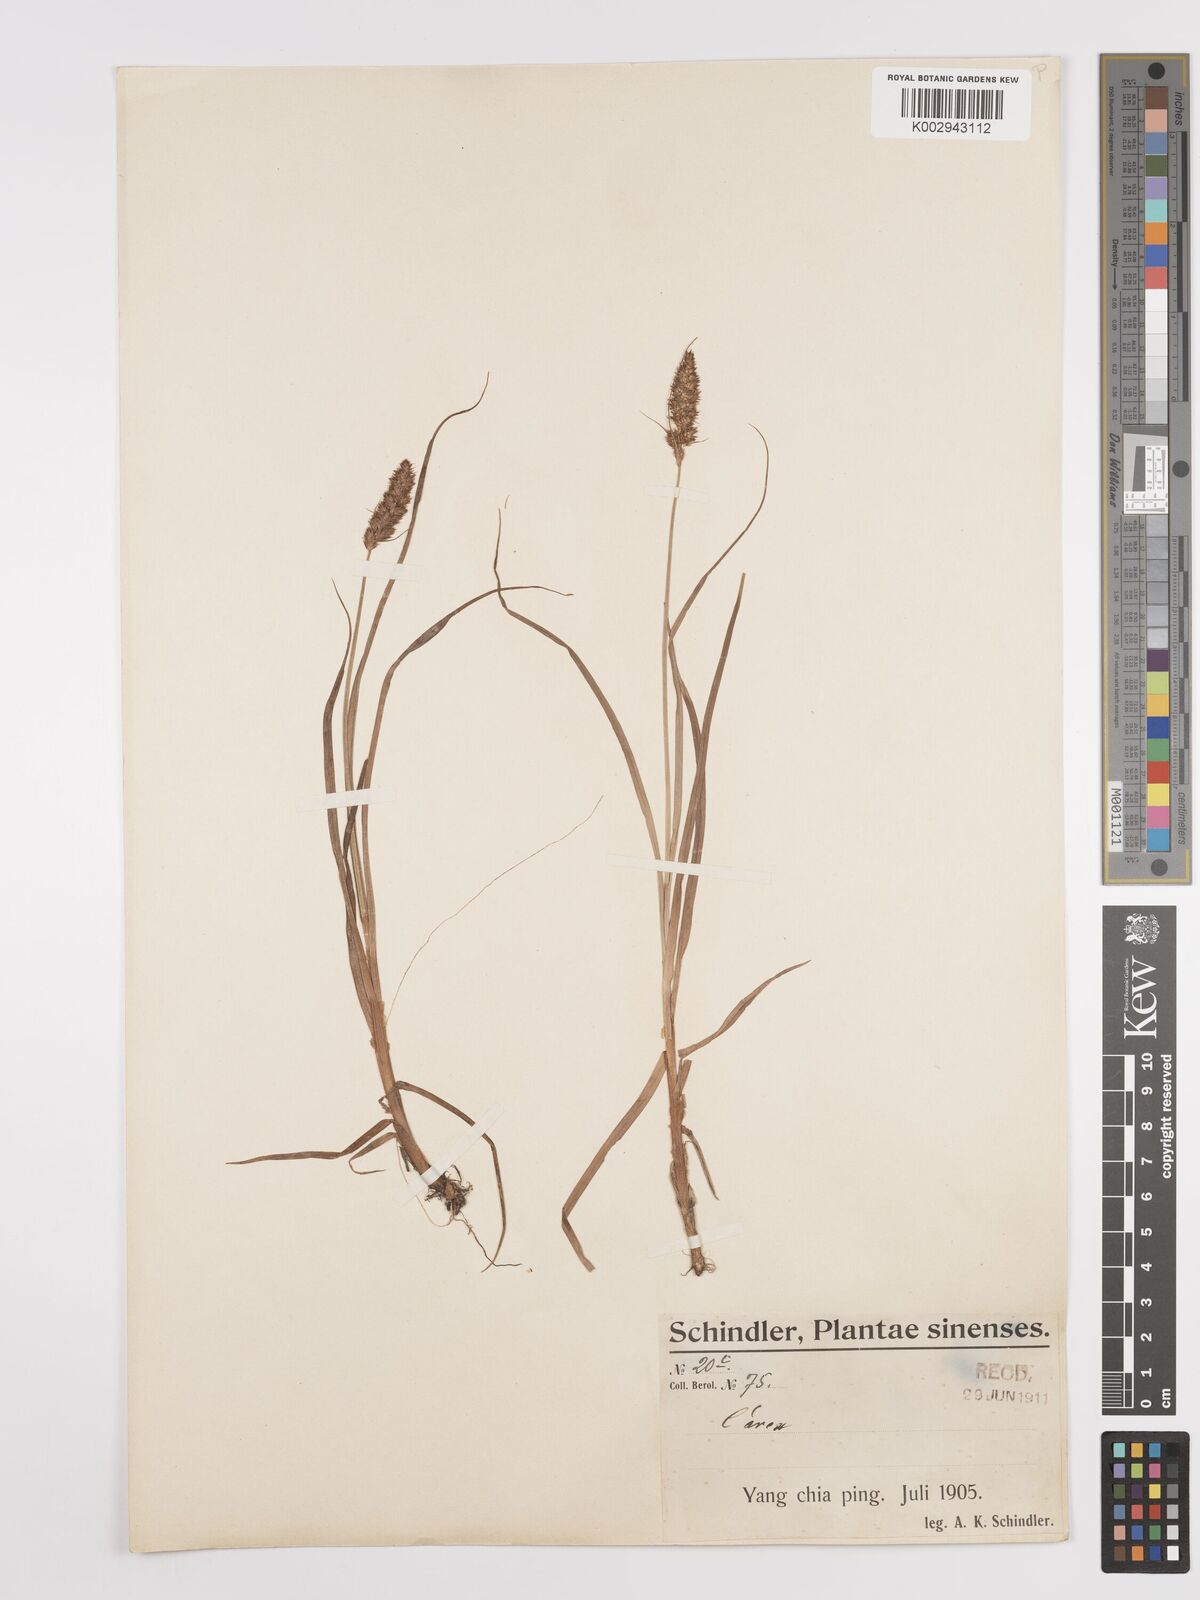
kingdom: Plantae
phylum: Tracheophyta
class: Liliopsida
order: Poales
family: Cyperaceae
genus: Carex
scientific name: Carex
